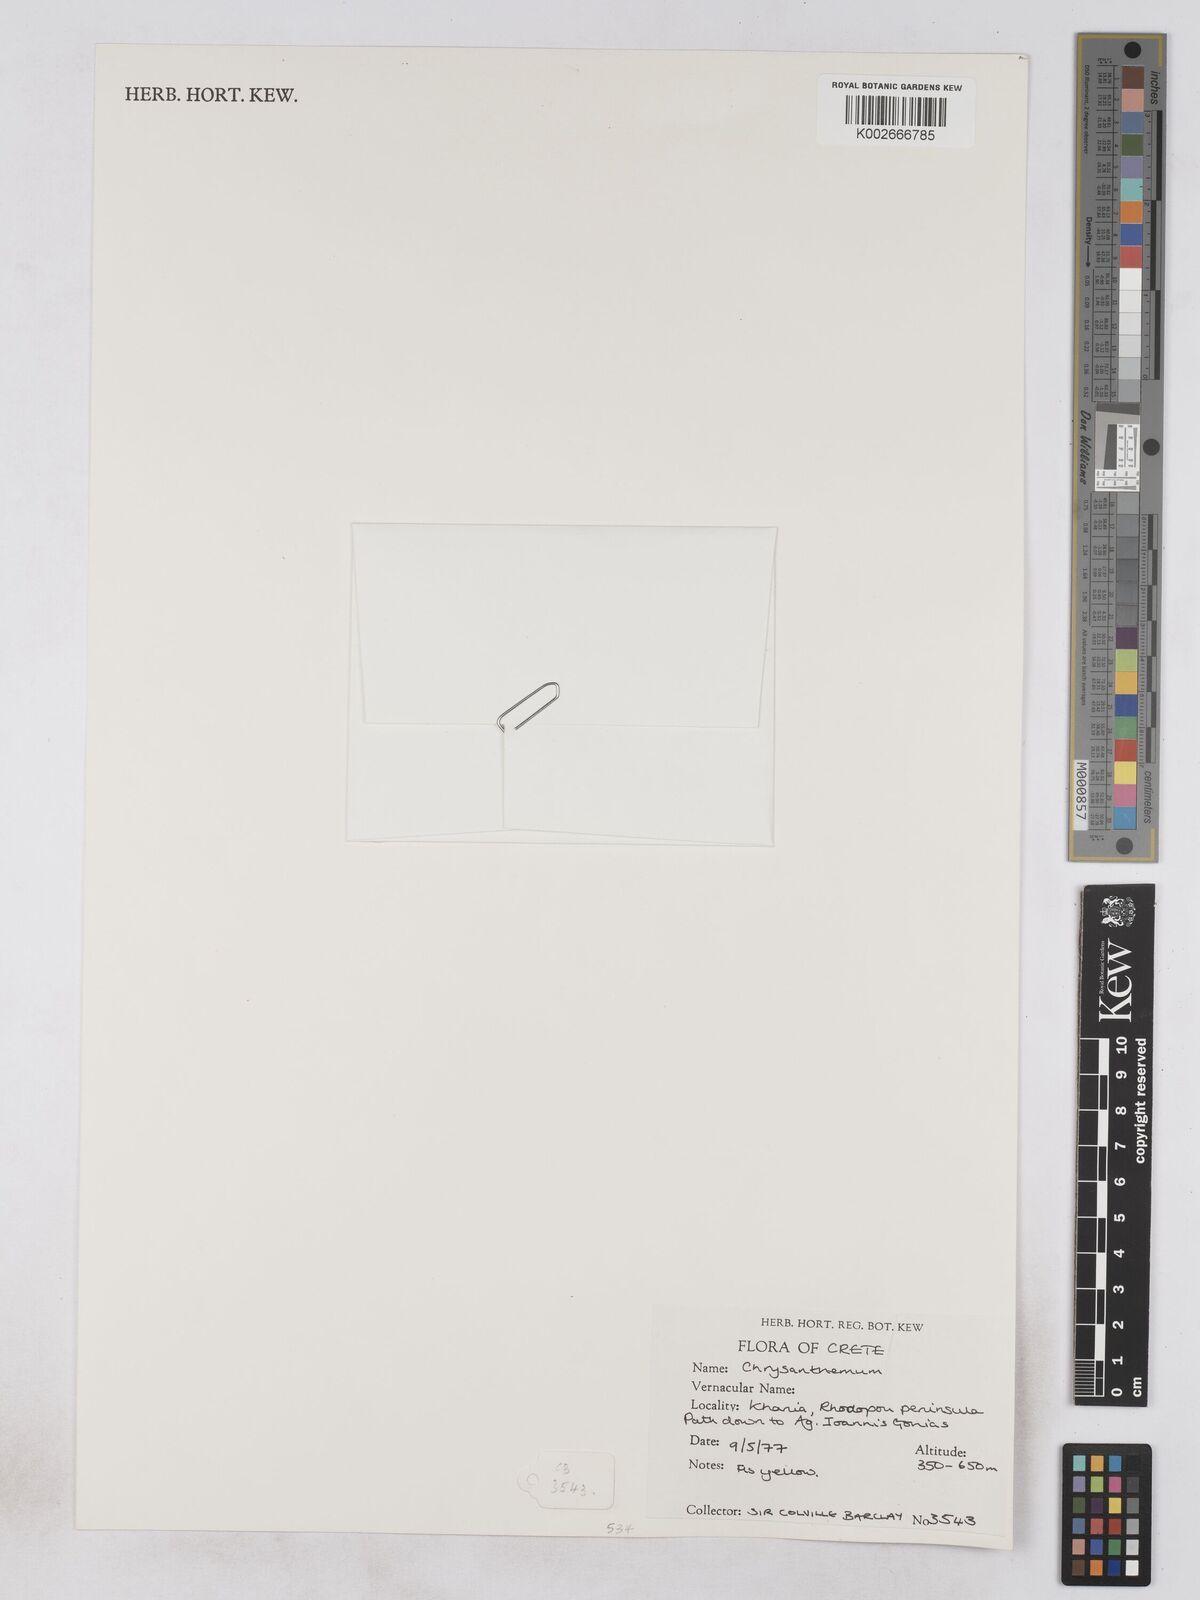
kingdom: Plantae
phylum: Tracheophyta
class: Magnoliopsida
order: Asterales
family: Asteraceae
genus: Glebionis
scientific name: Glebionis
